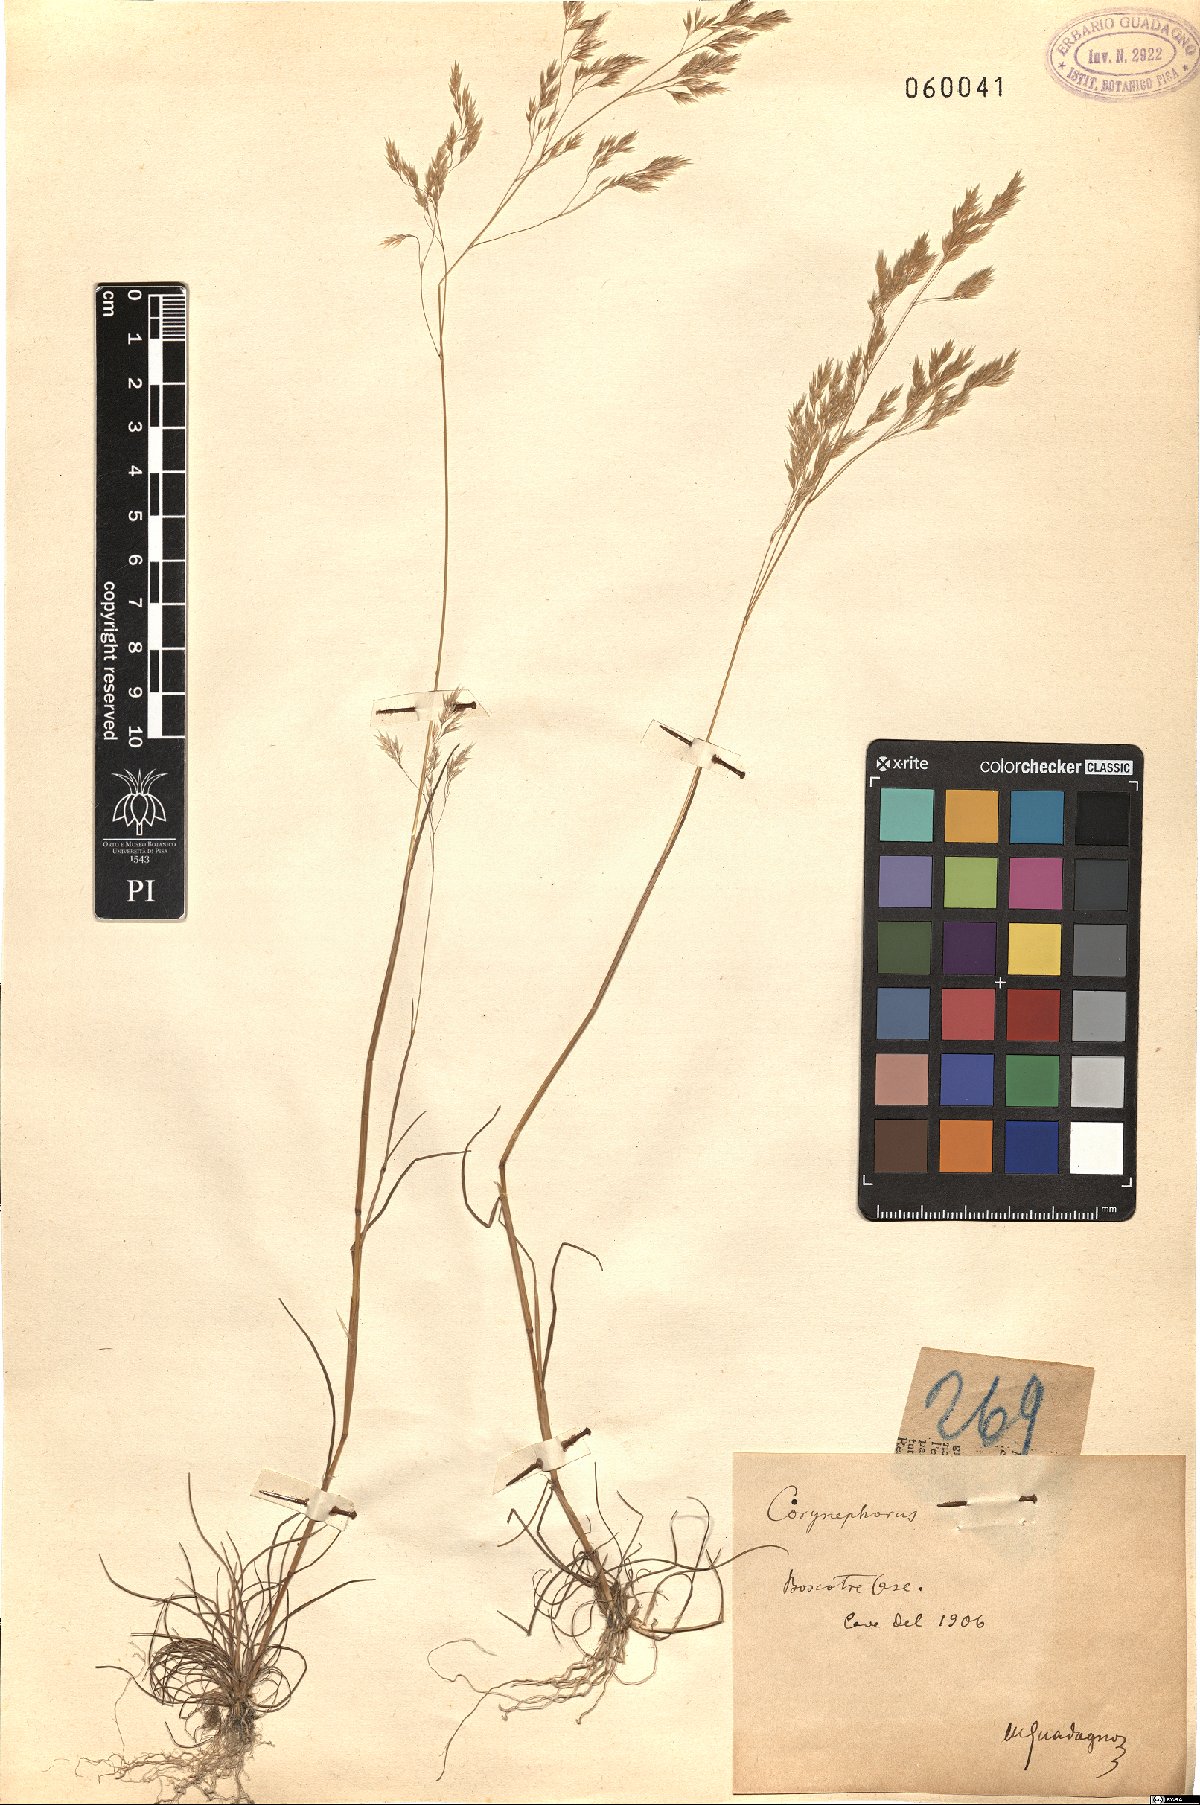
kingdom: Plantae
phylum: Tracheophyta
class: Liliopsida
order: Poales
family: Poaceae
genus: Corynephorus
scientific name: Corynephorus
